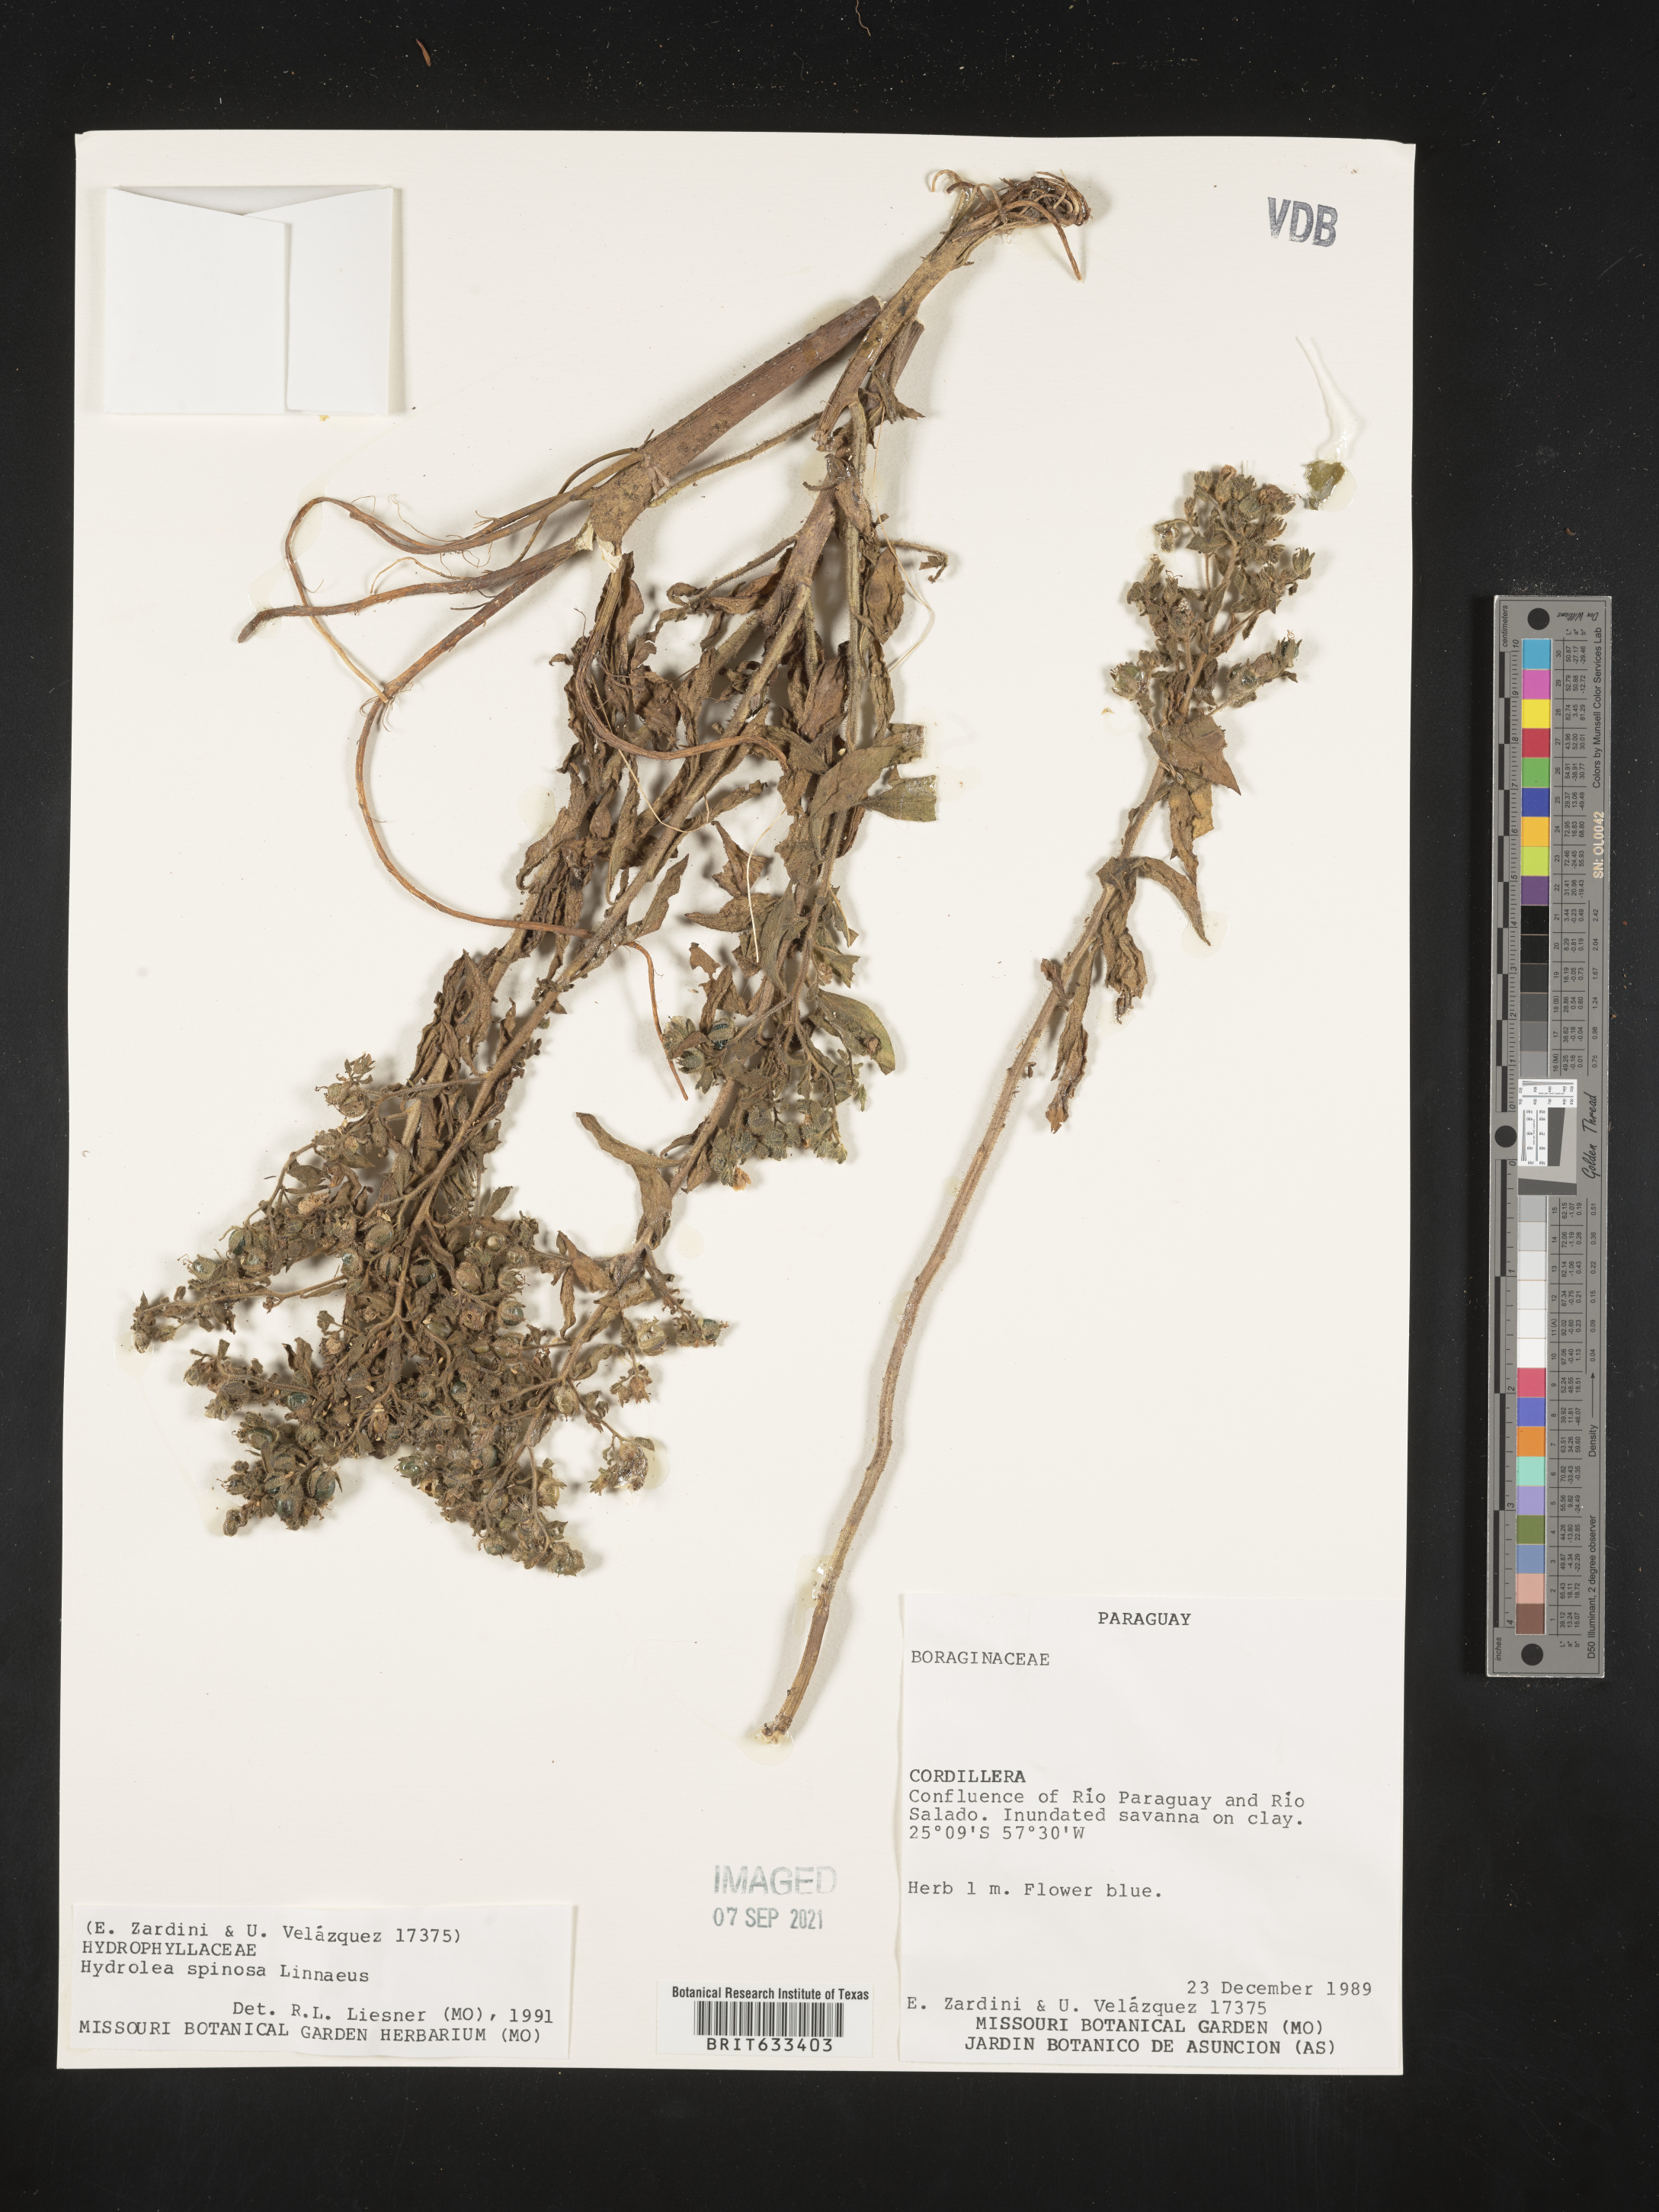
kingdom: Plantae
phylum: Tracheophyta
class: Magnoliopsida
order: Solanales
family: Hydroleaceae
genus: Hydrolea
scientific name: Hydrolea
